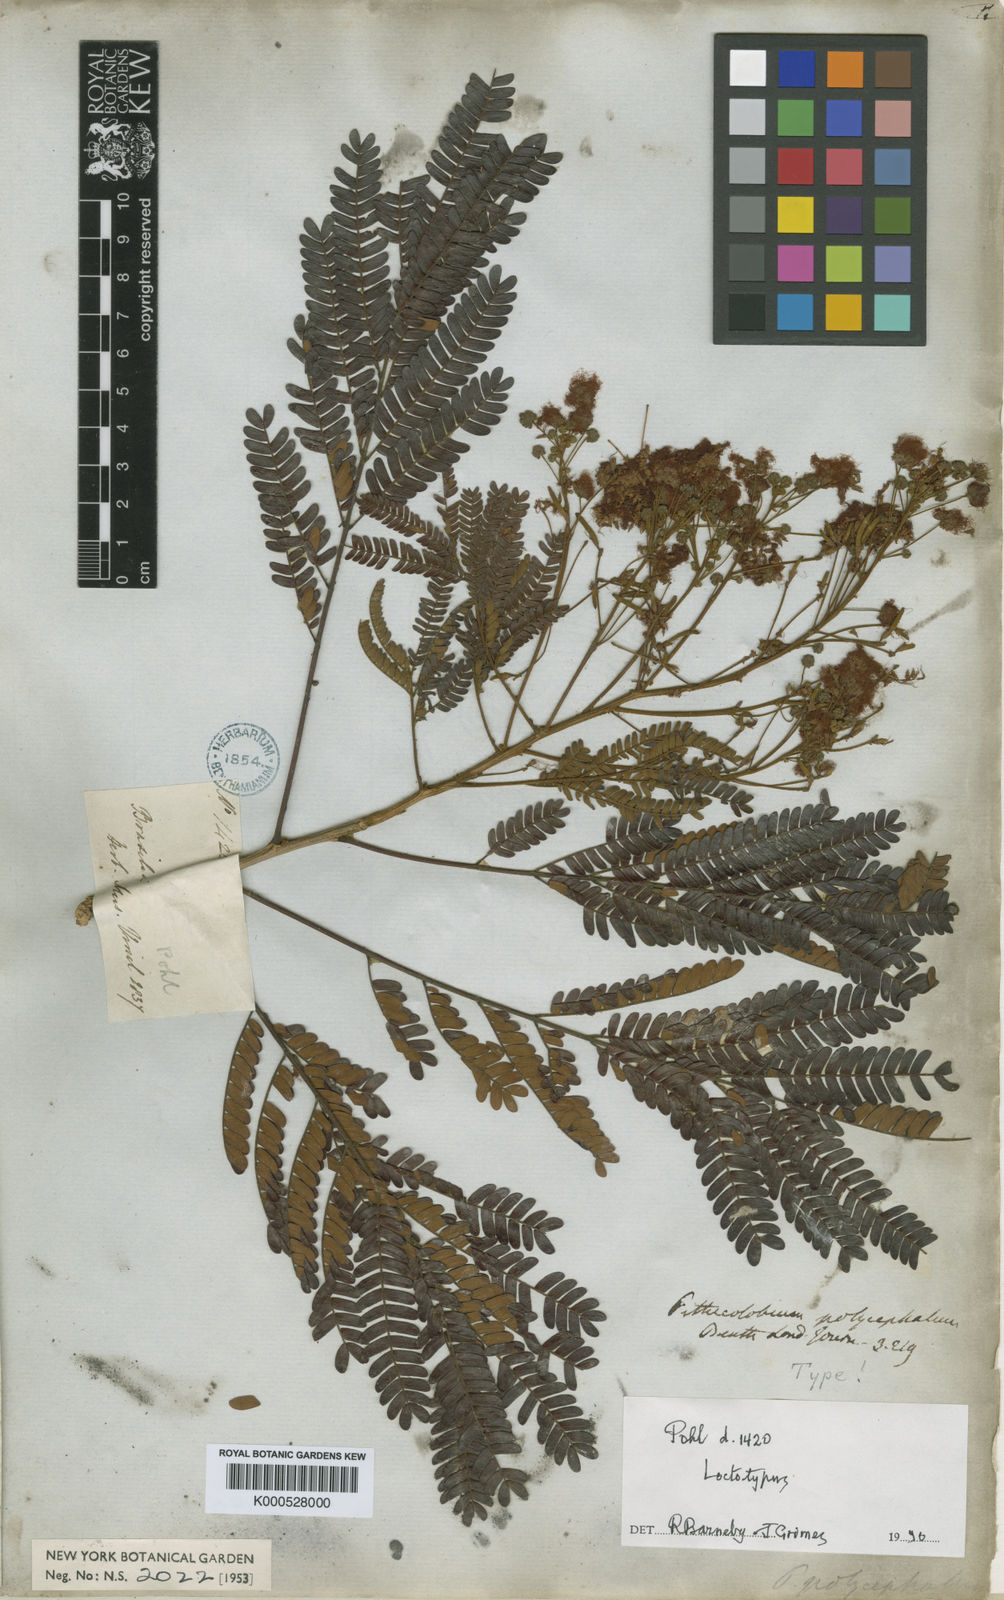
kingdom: Plantae
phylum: Tracheophyta
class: Magnoliopsida
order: Fabales
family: Fabaceae
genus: Albizia
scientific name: Albizia
